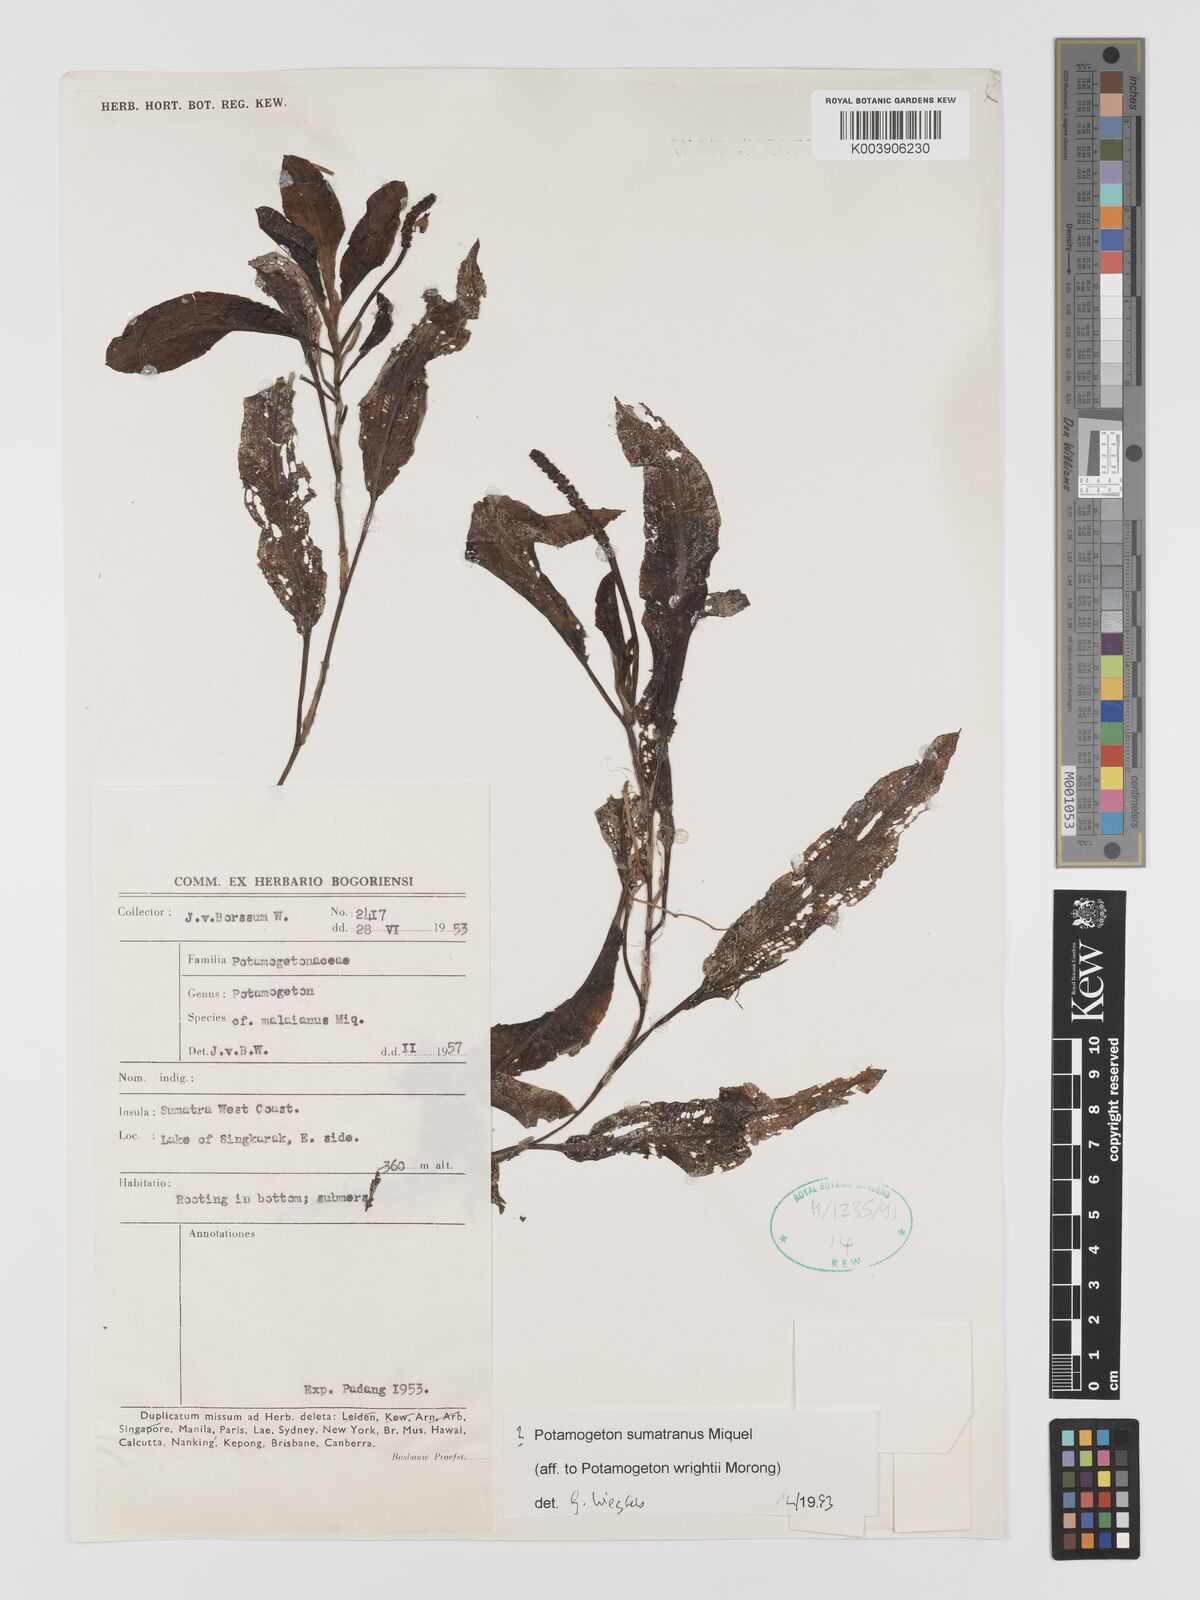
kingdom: Plantae
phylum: Tracheophyta
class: Liliopsida
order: Alismatales
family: Potamogetonaceae
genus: Potamogeton
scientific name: Potamogeton
